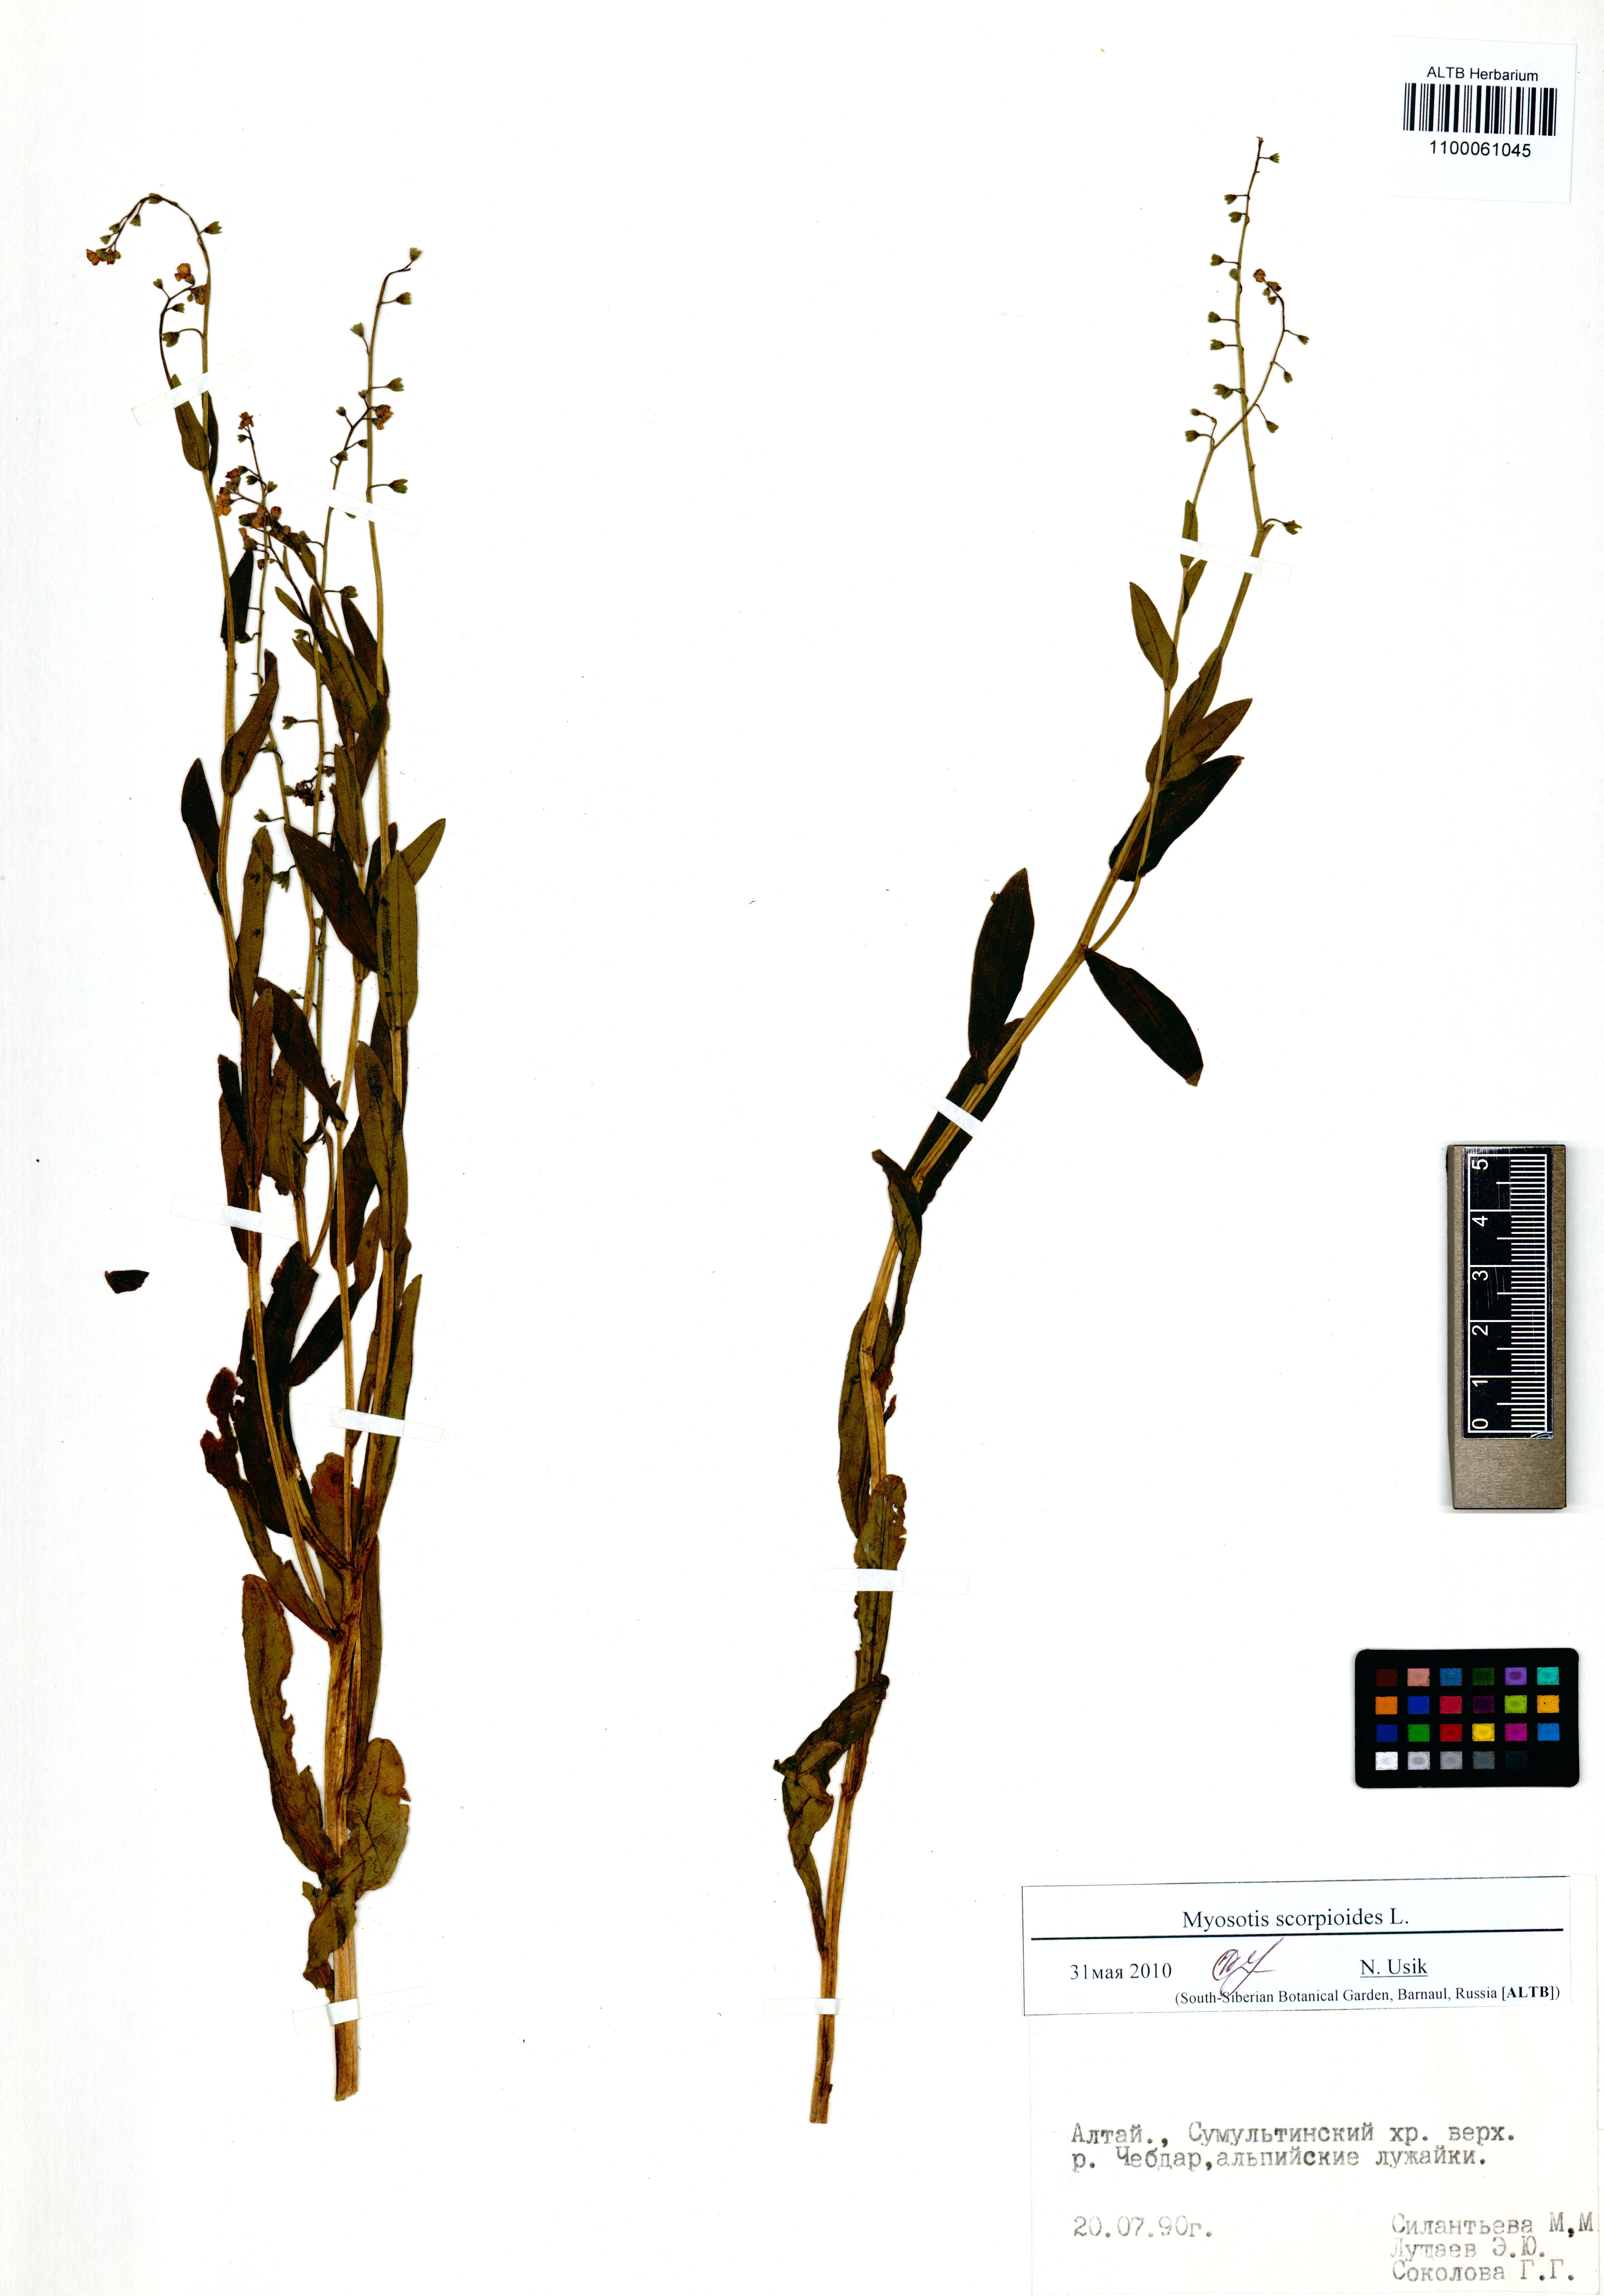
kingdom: Plantae
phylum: Tracheophyta
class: Magnoliopsida
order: Boraginales
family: Boraginaceae
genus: Myosotis
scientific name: Myosotis scorpioides
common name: Water forget-me-not
